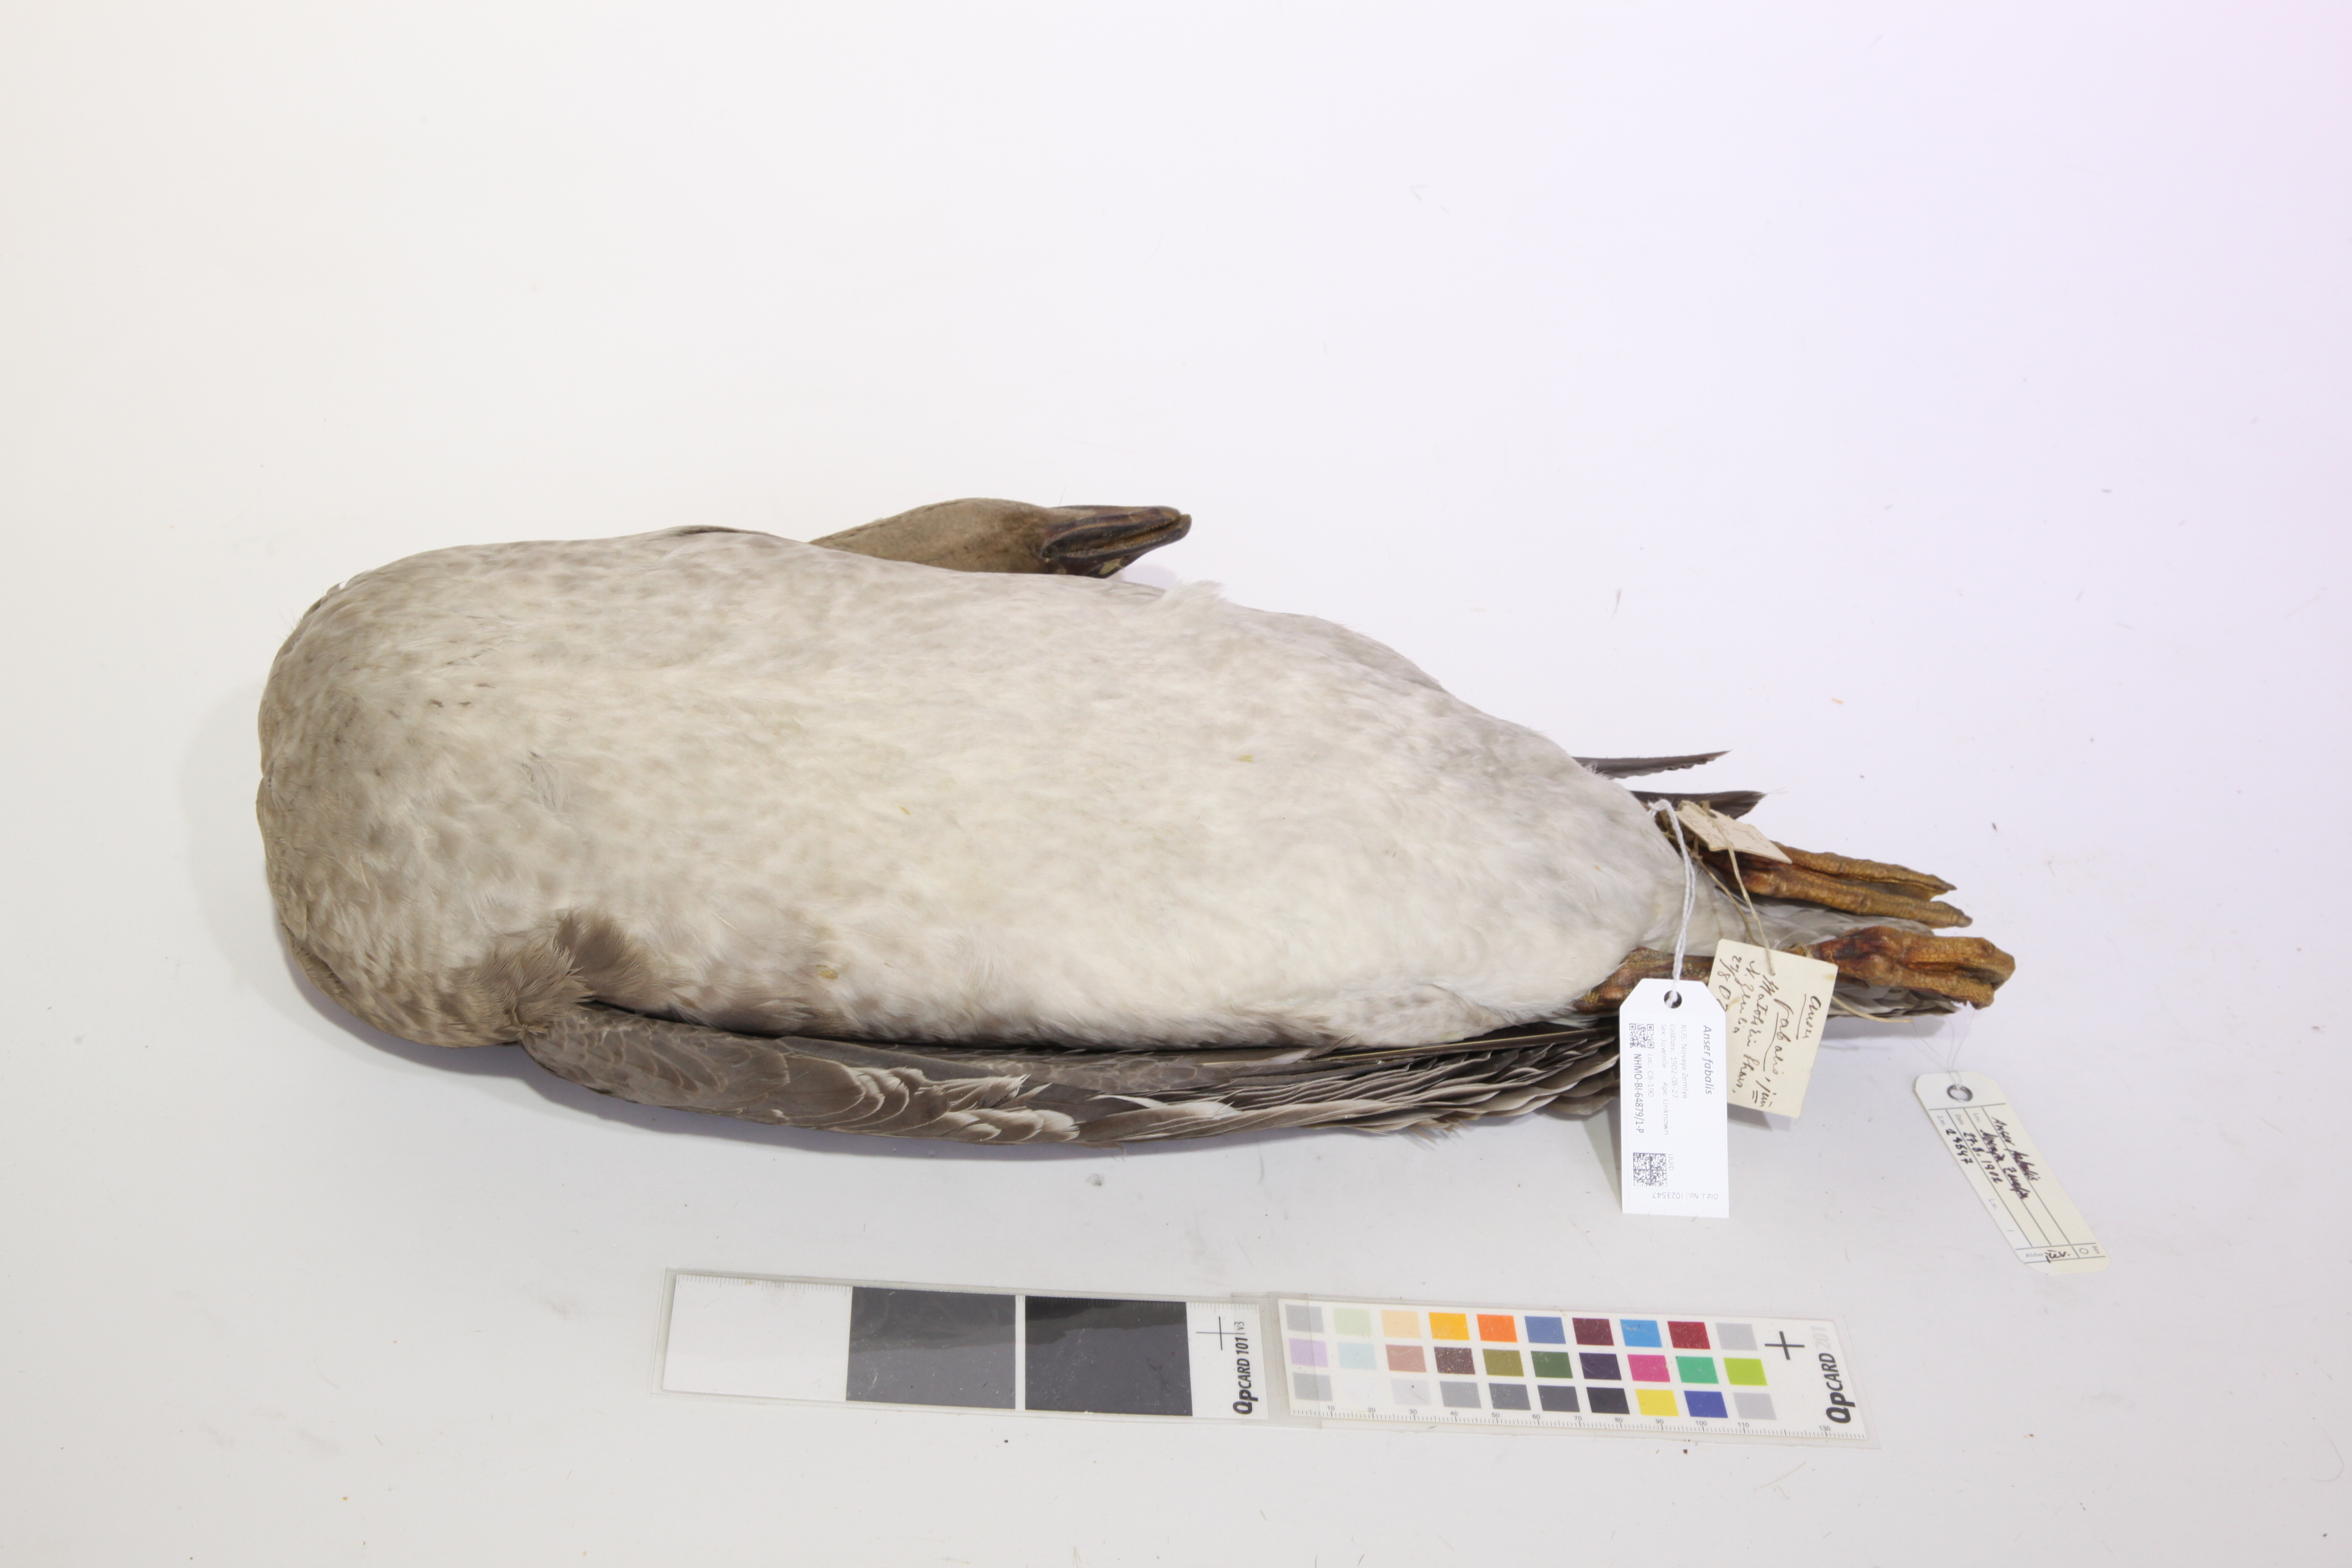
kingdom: Animalia
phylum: Chordata
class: Aves
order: Anseriformes
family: Anatidae
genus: Anser
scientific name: Anser serrirostris
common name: Tundra bean goose
